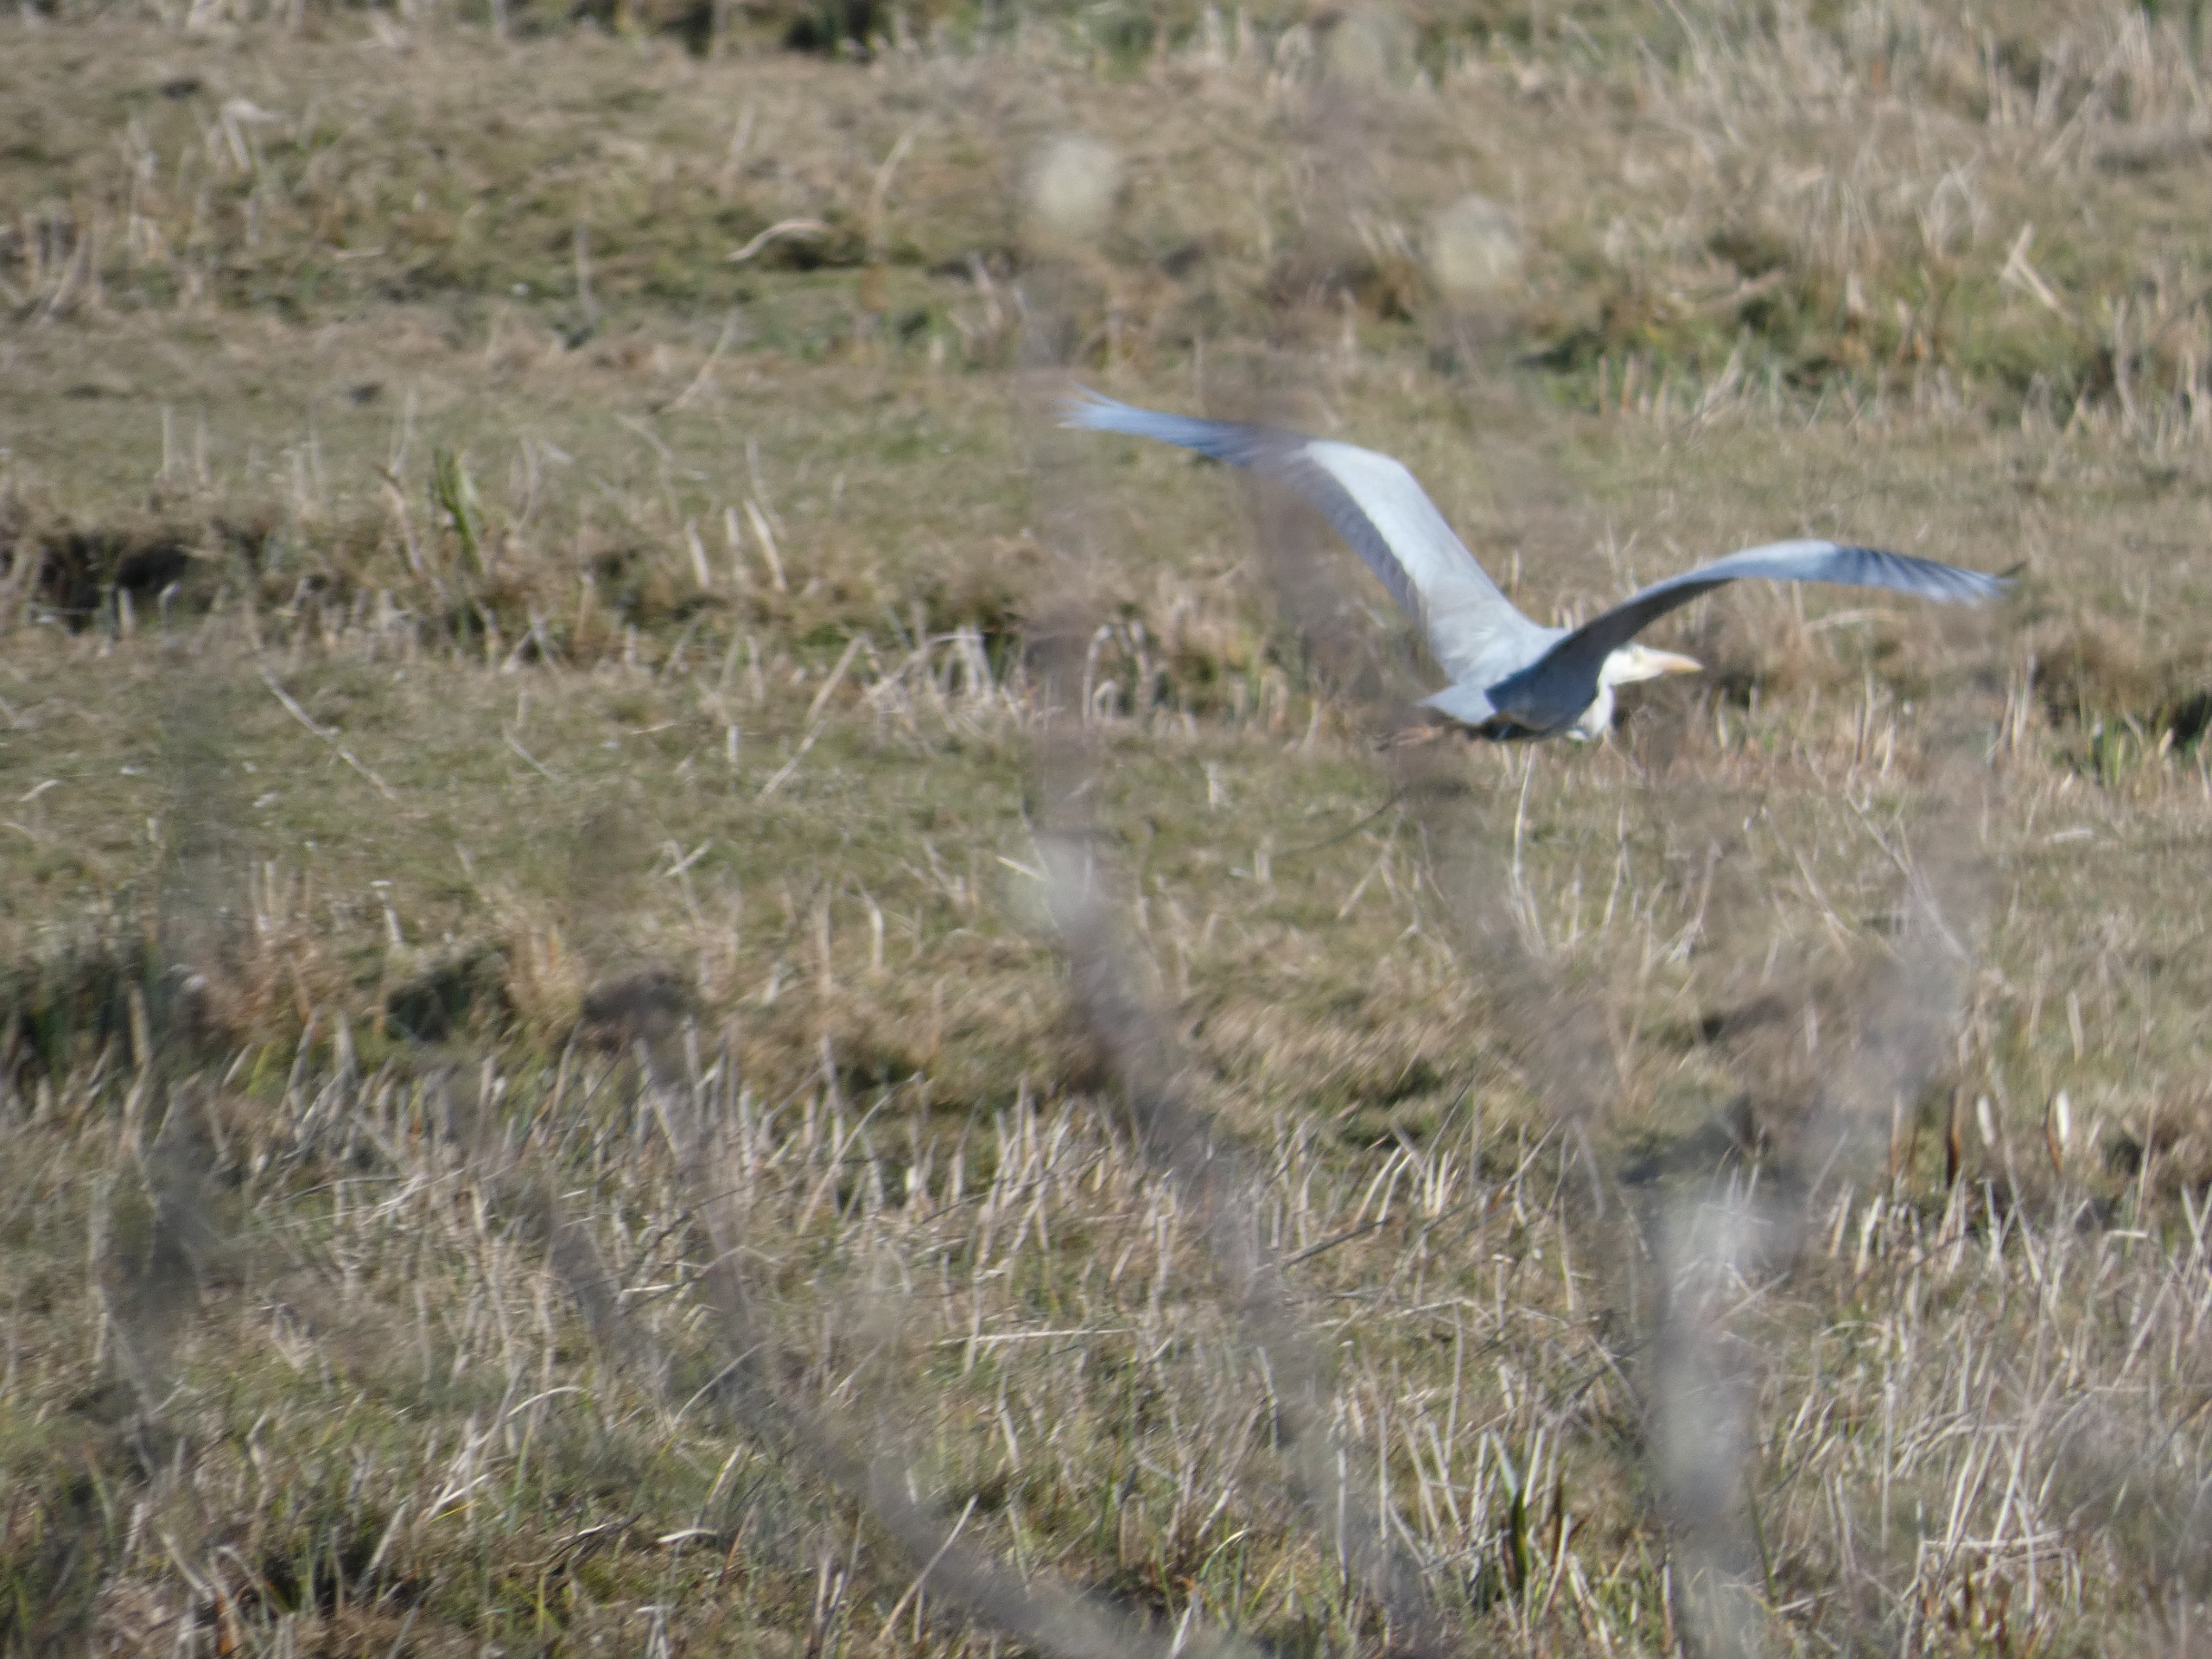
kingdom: Animalia
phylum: Chordata
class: Aves
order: Pelecaniformes
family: Ardeidae
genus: Ardea
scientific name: Ardea cinerea
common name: Fiskehejre
